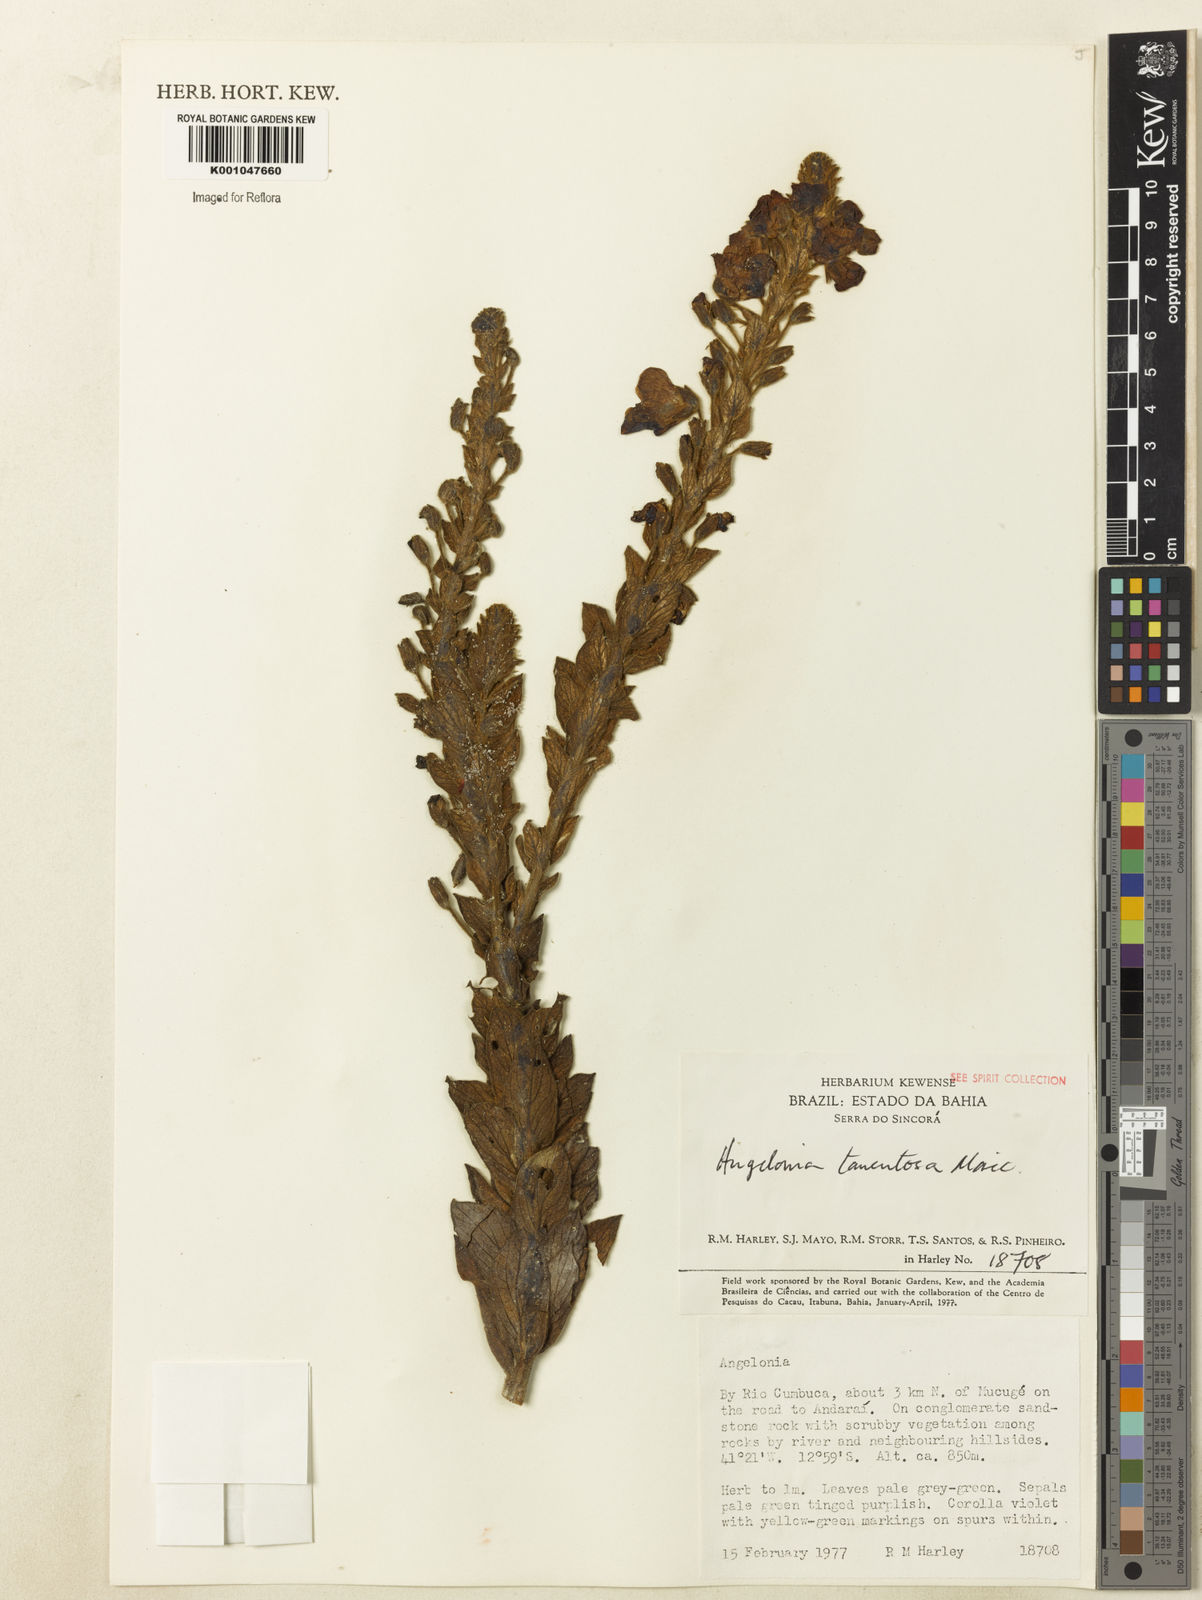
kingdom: Plantae
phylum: Tracheophyta
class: Magnoliopsida
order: Lamiales
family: Plantaginaceae
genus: Angelonia
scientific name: Angelonia tomentosa
